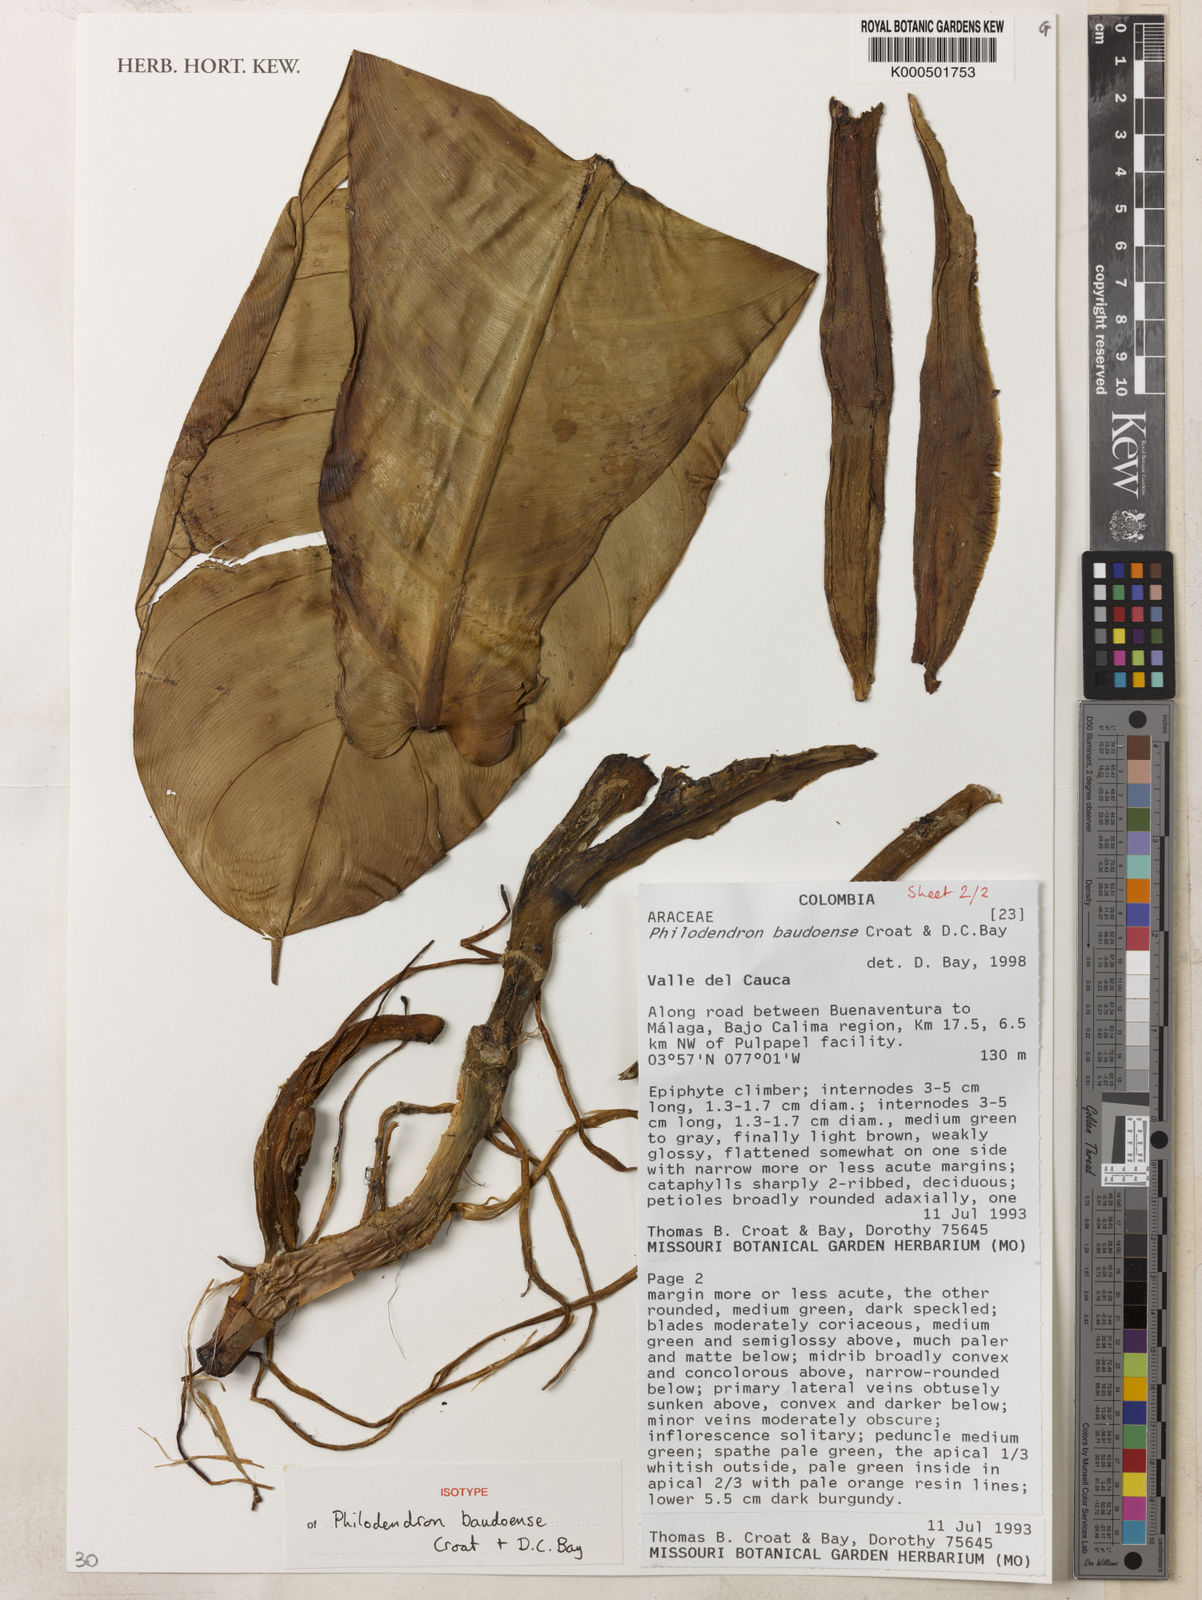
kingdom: Plantae
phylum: Tracheophyta
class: Liliopsida
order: Alismatales
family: Araceae
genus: Philodendron
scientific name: Philodendron baudoense
